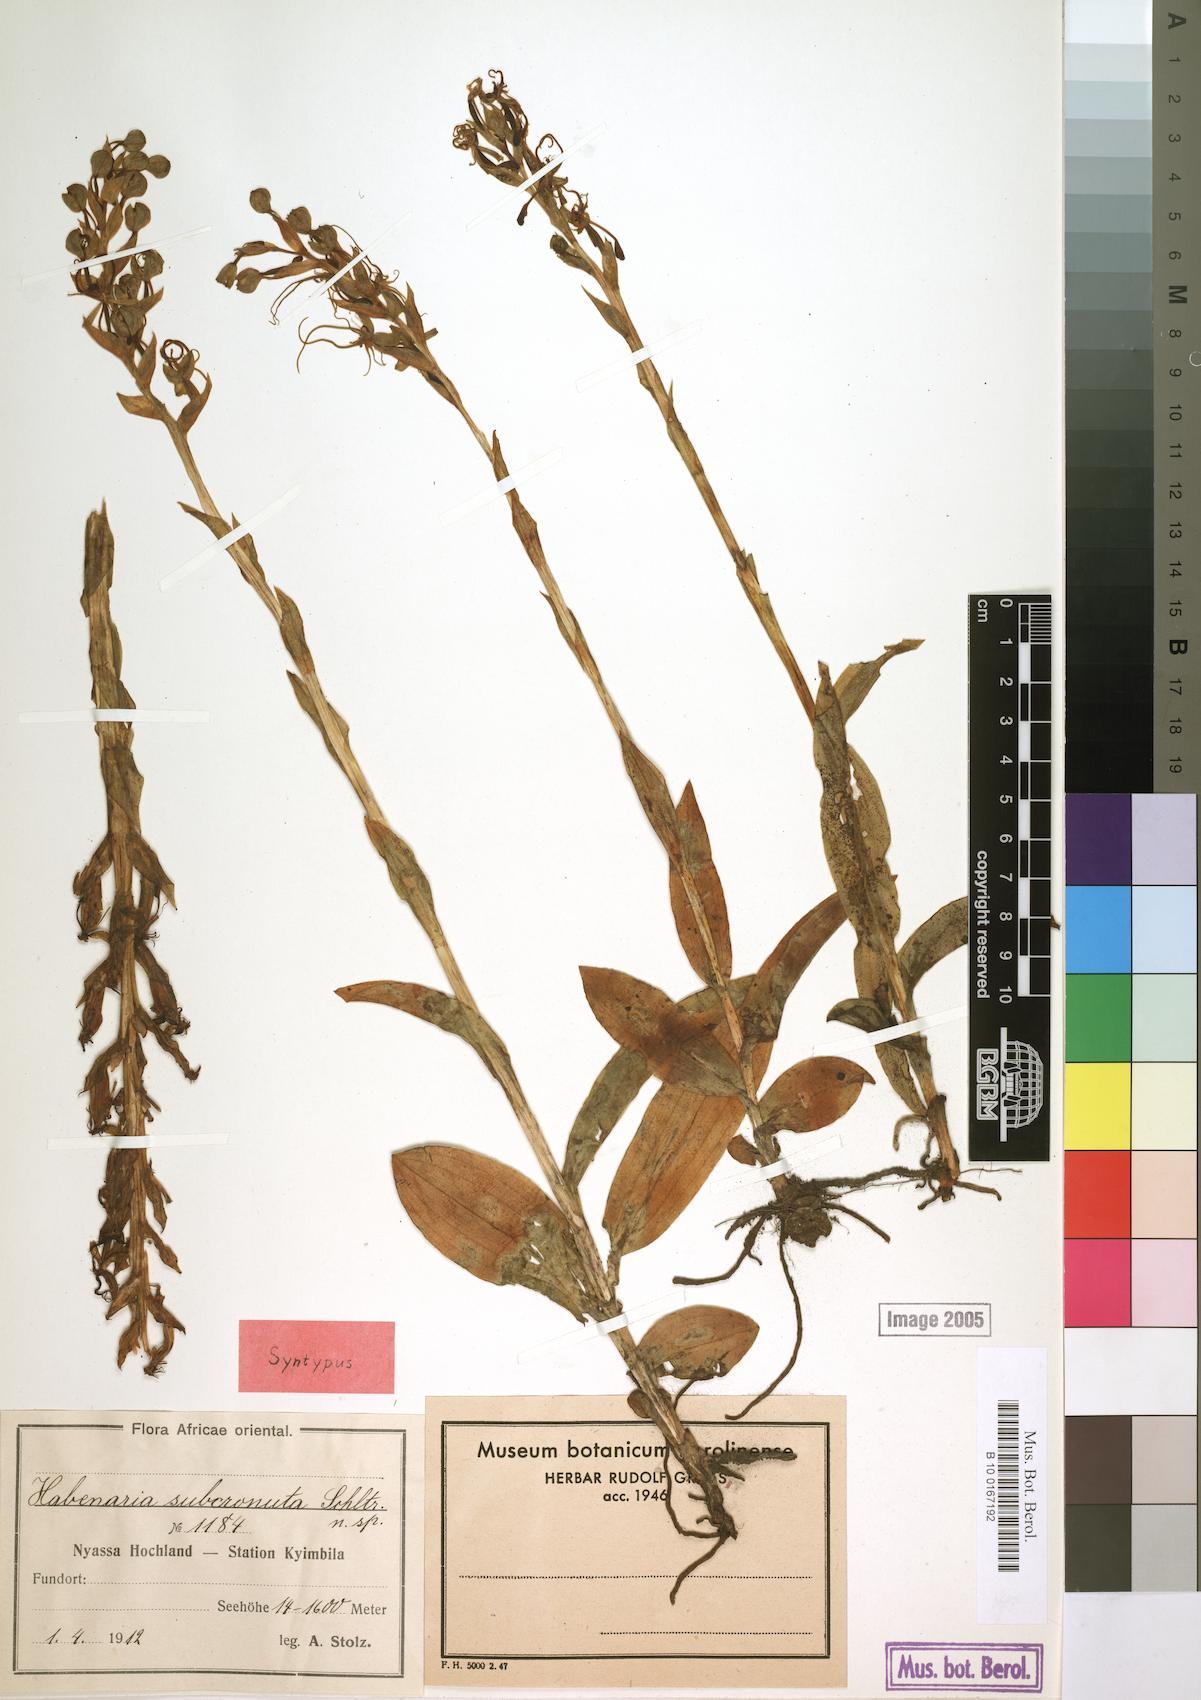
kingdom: Plantae
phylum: Tracheophyta
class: Liliopsida
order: Asparagales
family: Orchidaceae
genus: Habenaria
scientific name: Habenaria cornuta
